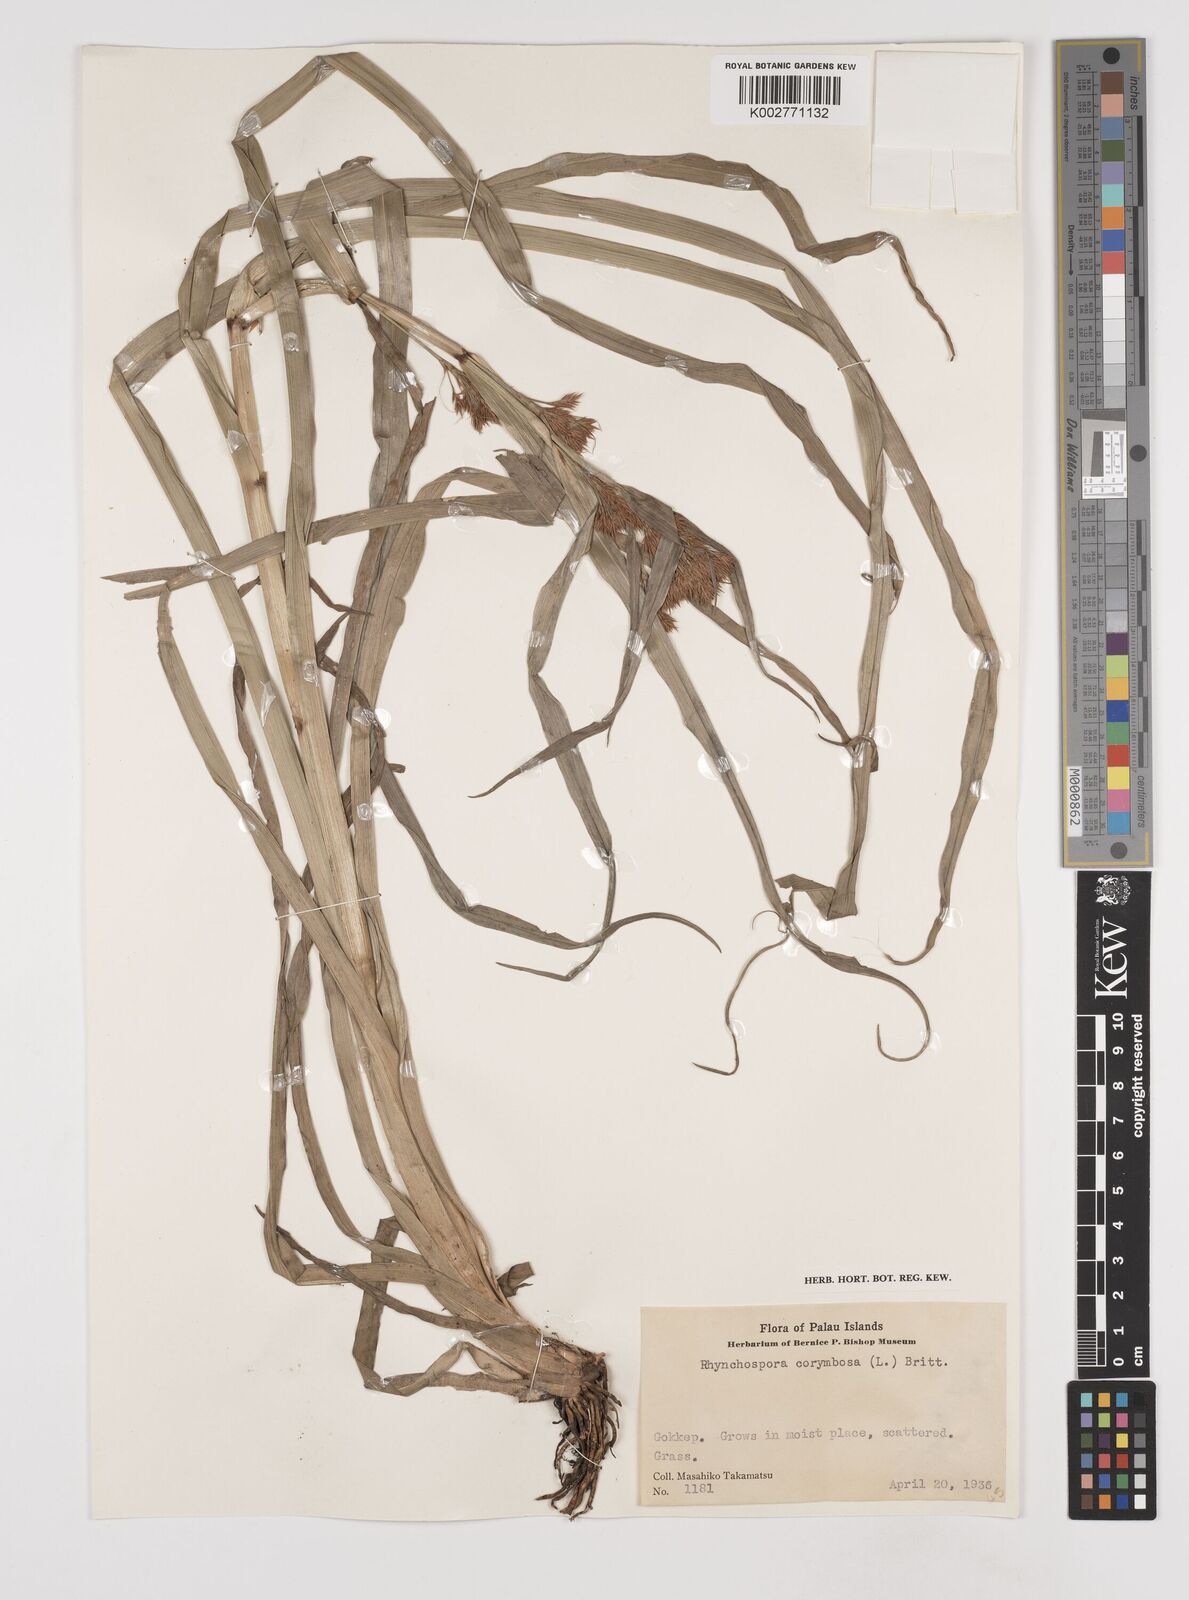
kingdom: Plantae
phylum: Tracheophyta
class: Liliopsida
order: Poales
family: Cyperaceae
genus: Rhynchospora
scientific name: Rhynchospora corymbosa
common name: Golden beak sedge
